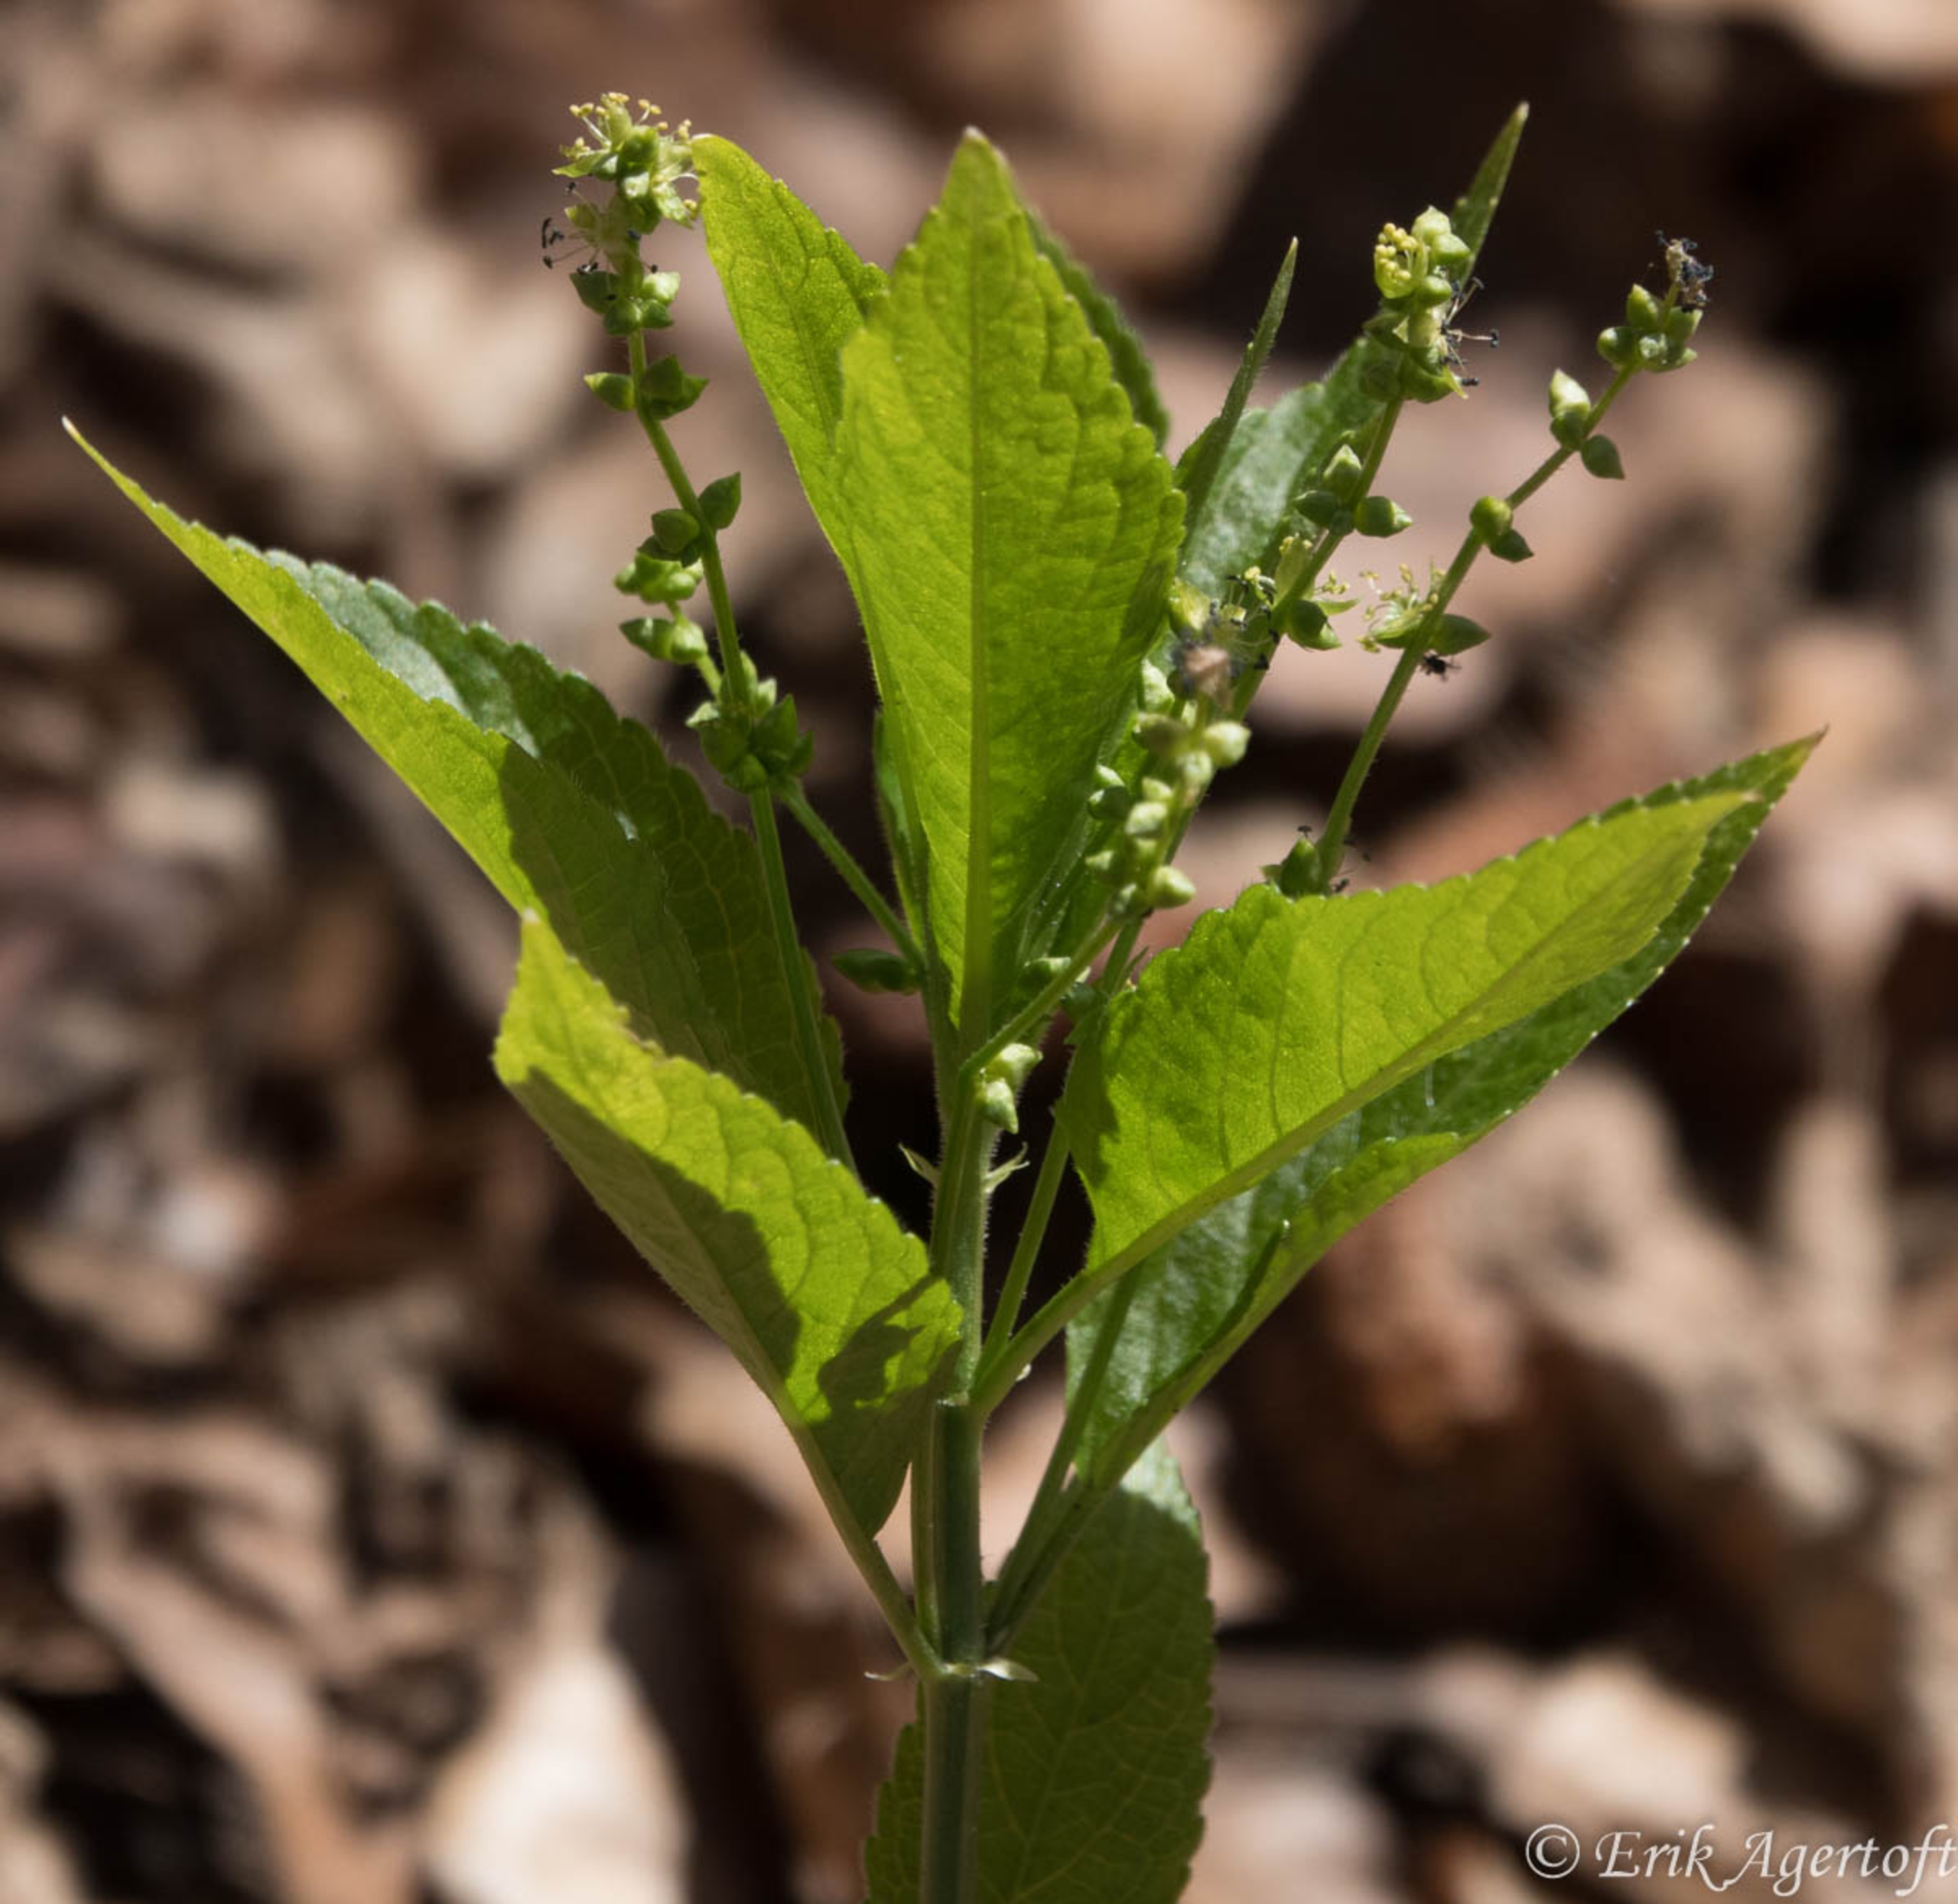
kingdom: Plantae
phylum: Tracheophyta
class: Magnoliopsida
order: Malpighiales
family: Euphorbiaceae
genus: Mercurialis
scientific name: Mercurialis perennis
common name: Almindelig bingelurt
